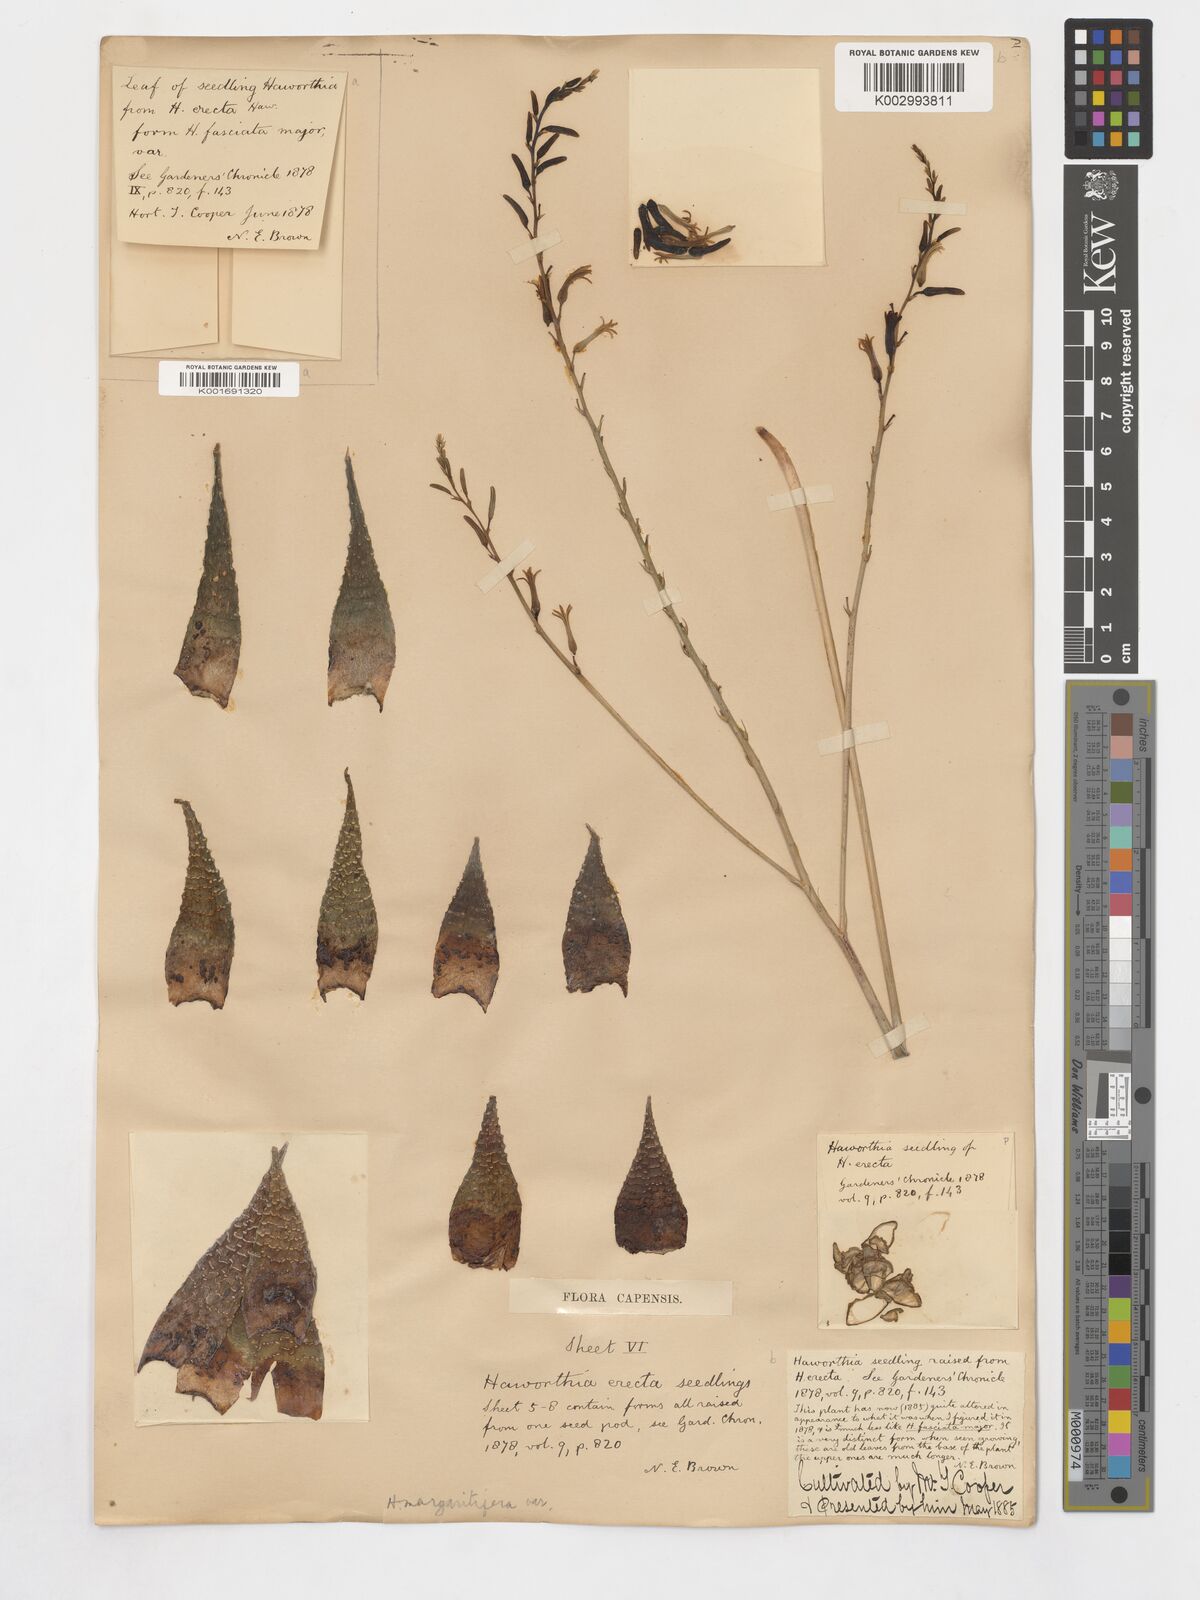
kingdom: Plantae
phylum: Tracheophyta
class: Liliopsida
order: Asparagales
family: Asphodelaceae
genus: Tulista
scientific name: Tulista minor
